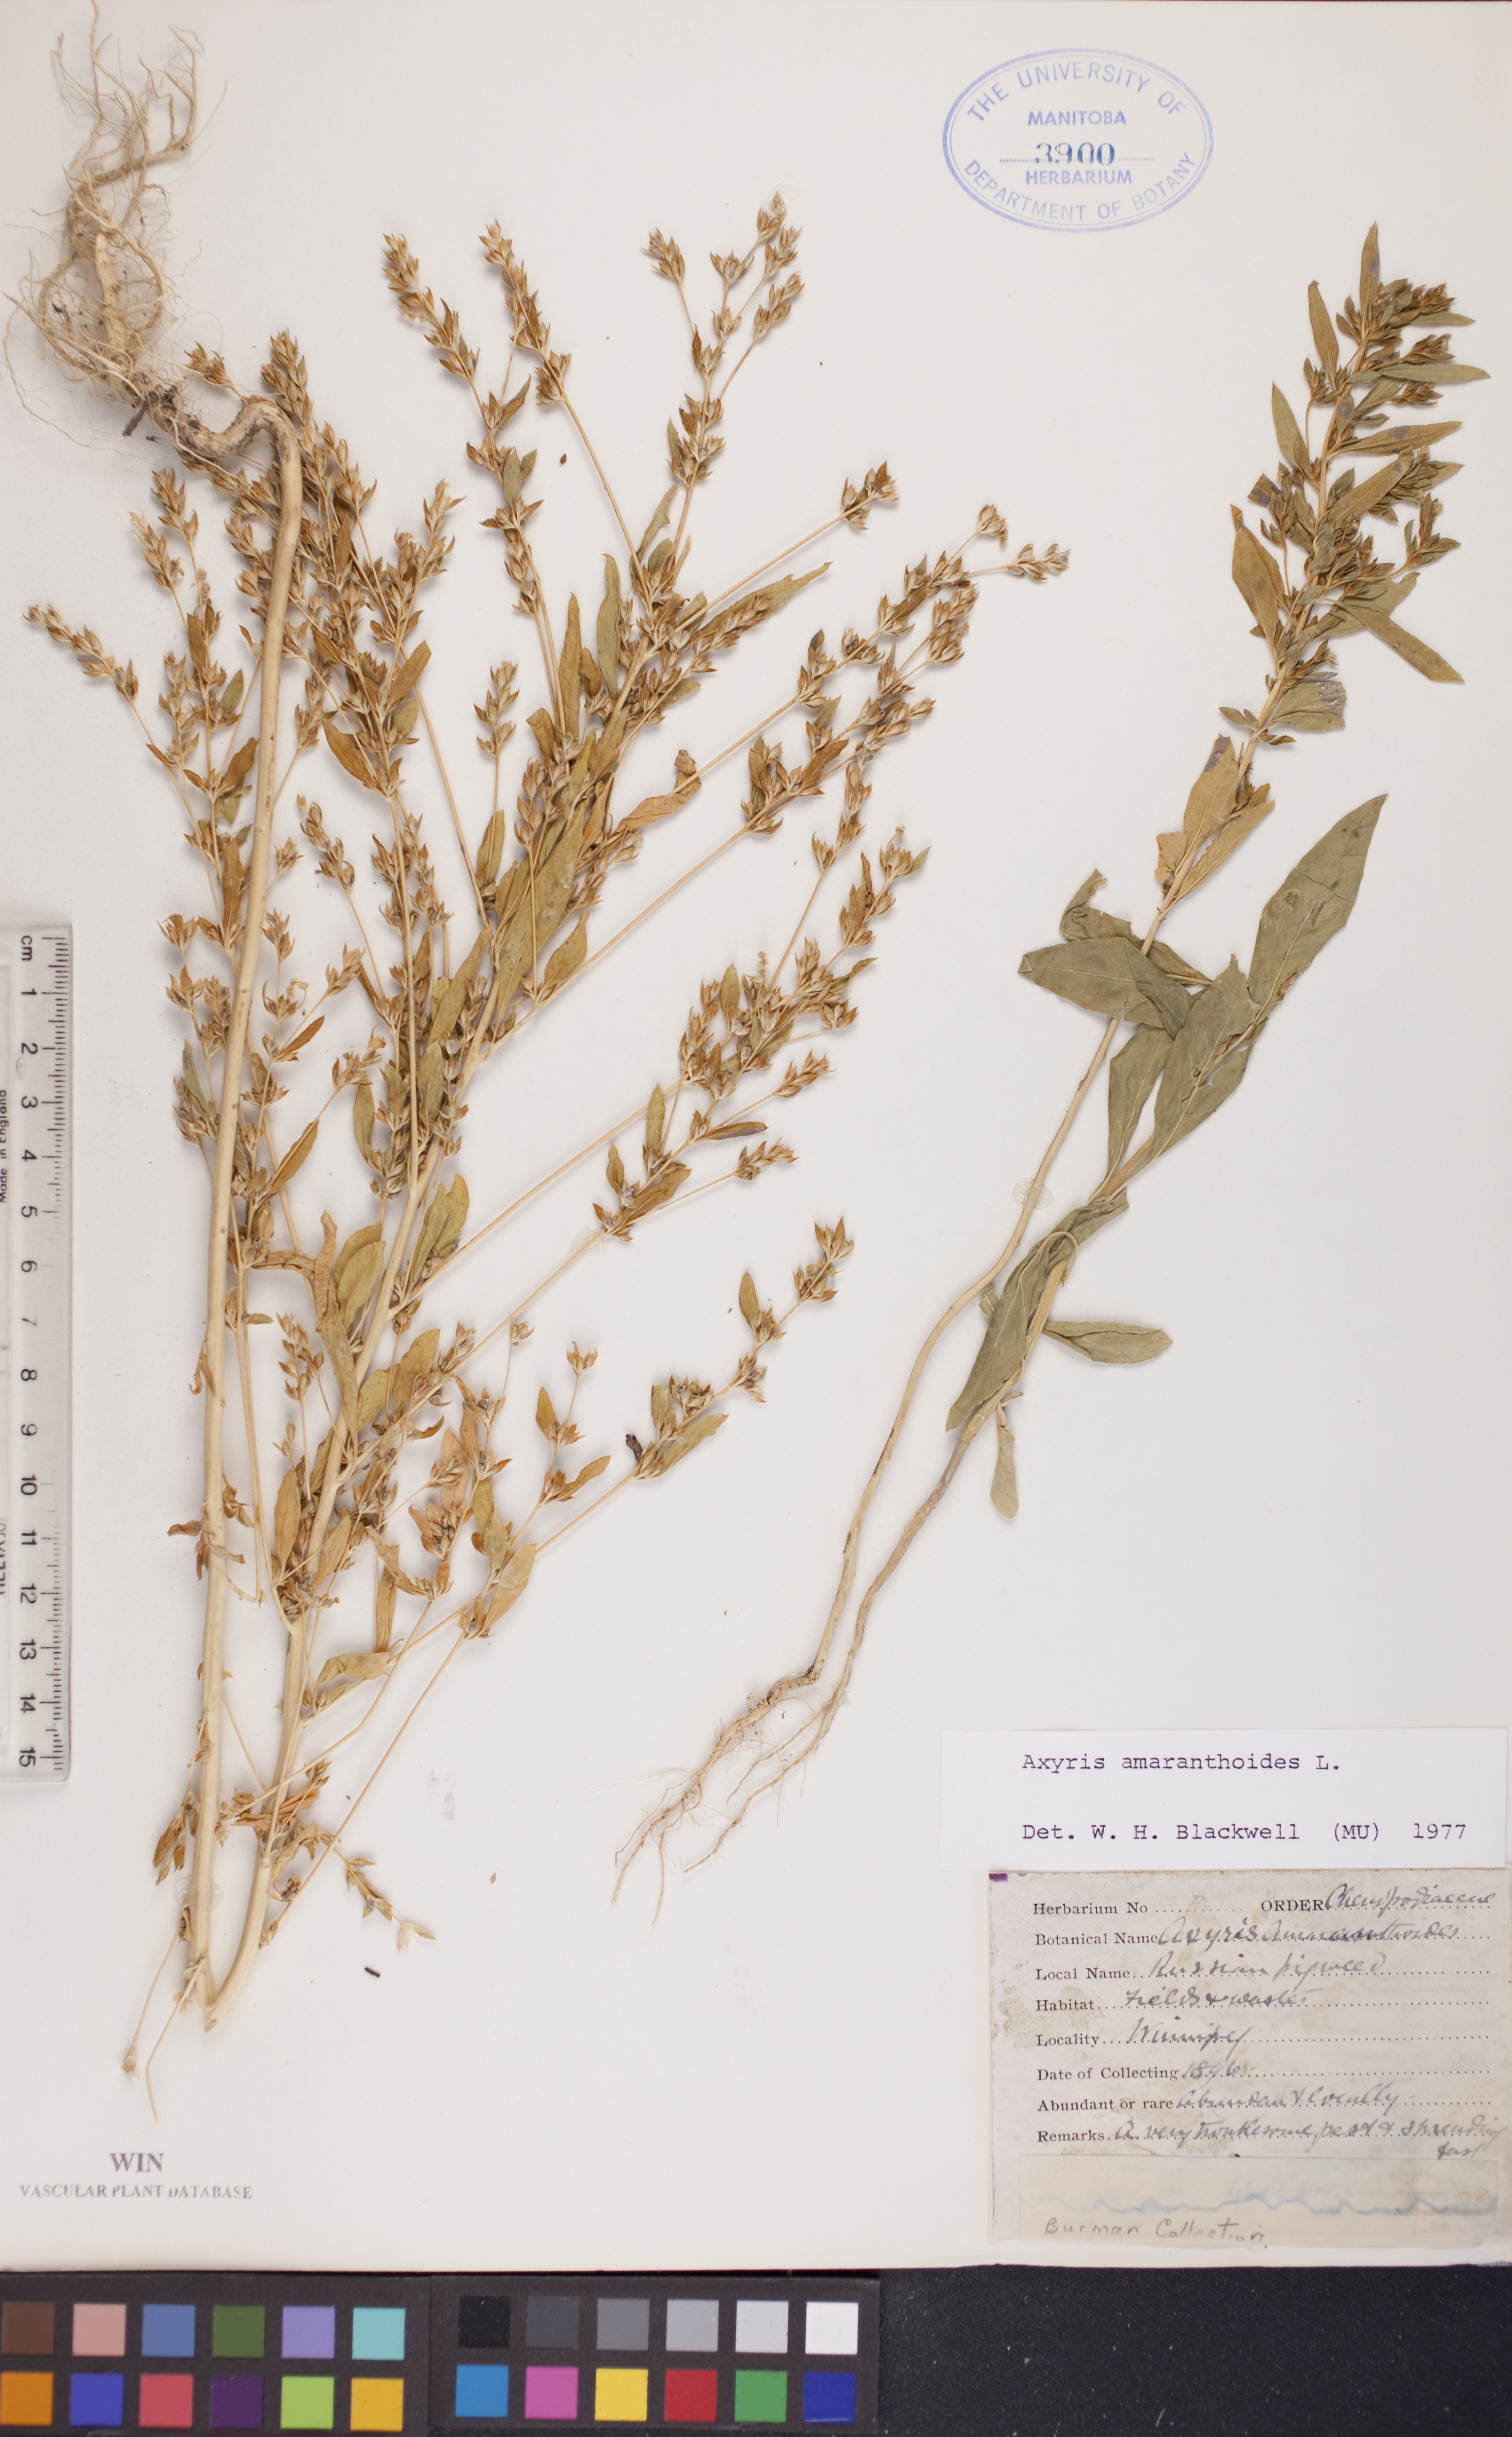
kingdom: Plantae
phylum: Tracheophyta
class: Magnoliopsida
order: Caryophyllales
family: Amaranthaceae
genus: Axyris
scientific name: Axyris amaranthoides
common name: Russian pigweed
